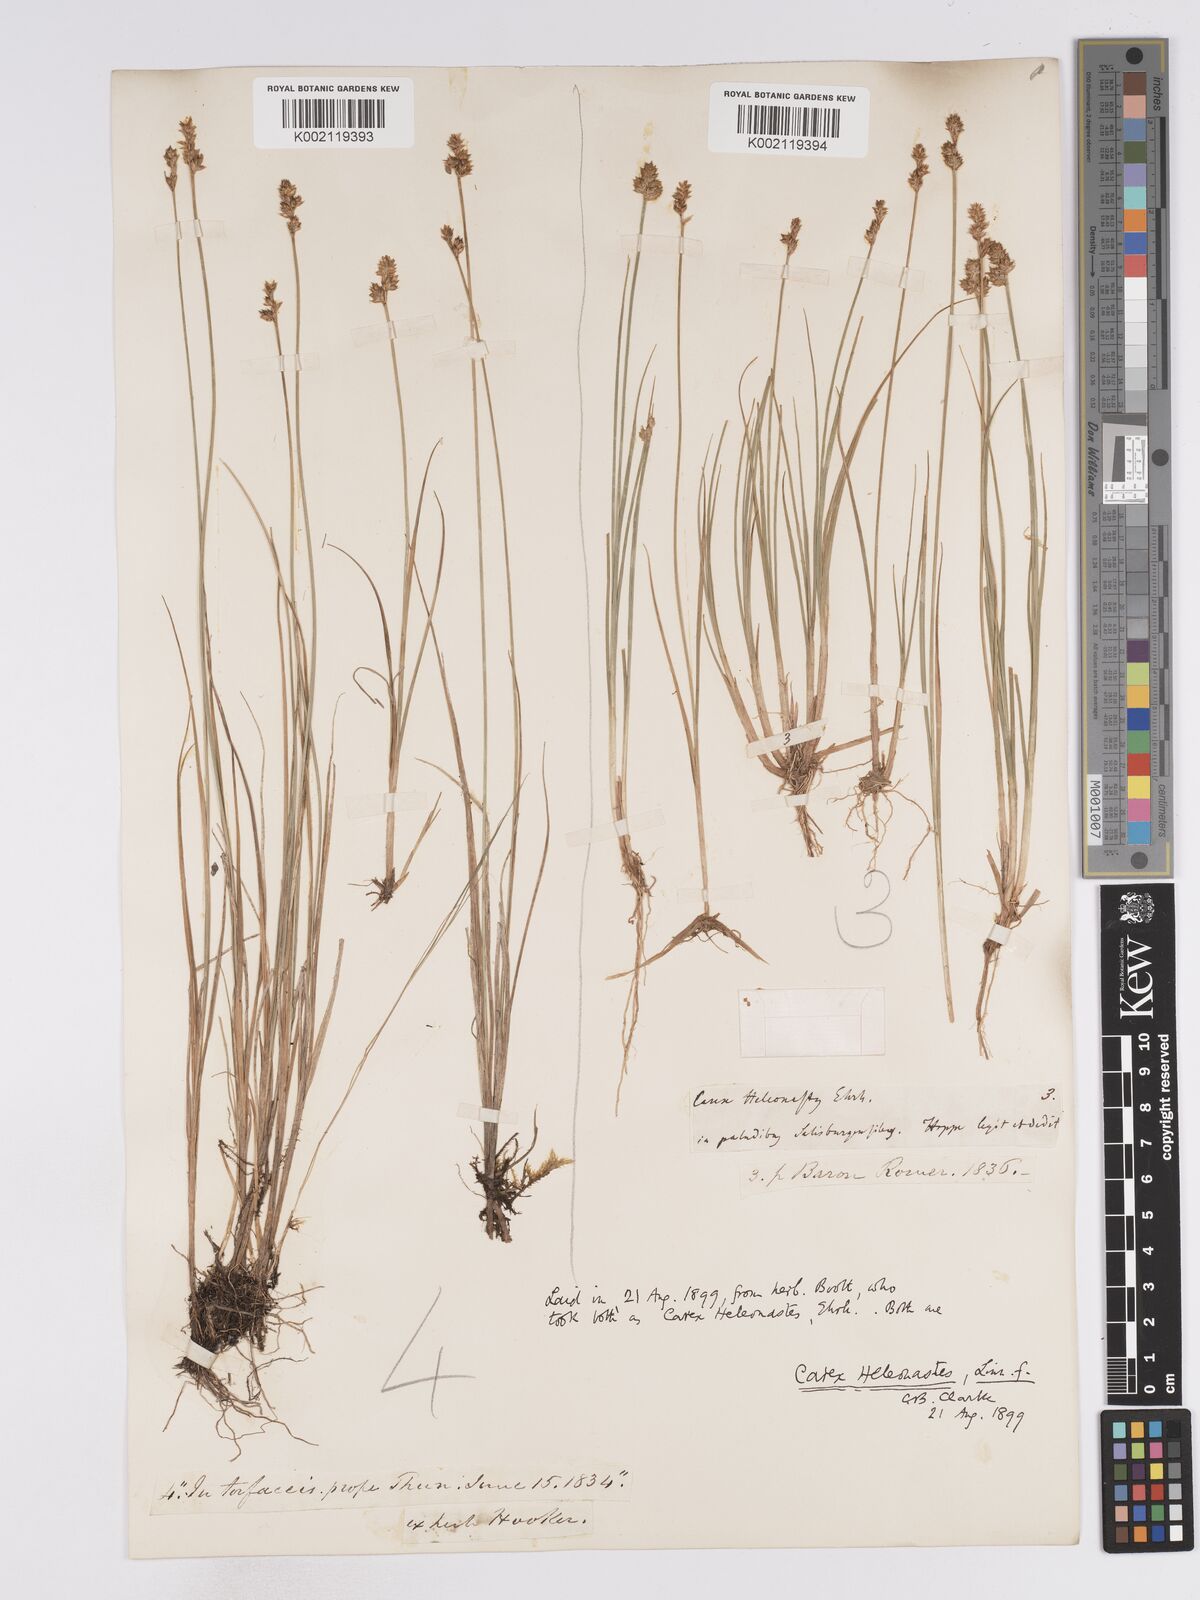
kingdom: Plantae
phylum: Tracheophyta
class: Liliopsida
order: Poales
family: Cyperaceae
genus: Carex
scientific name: Carex heleonastes
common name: Hudson bay sedge
